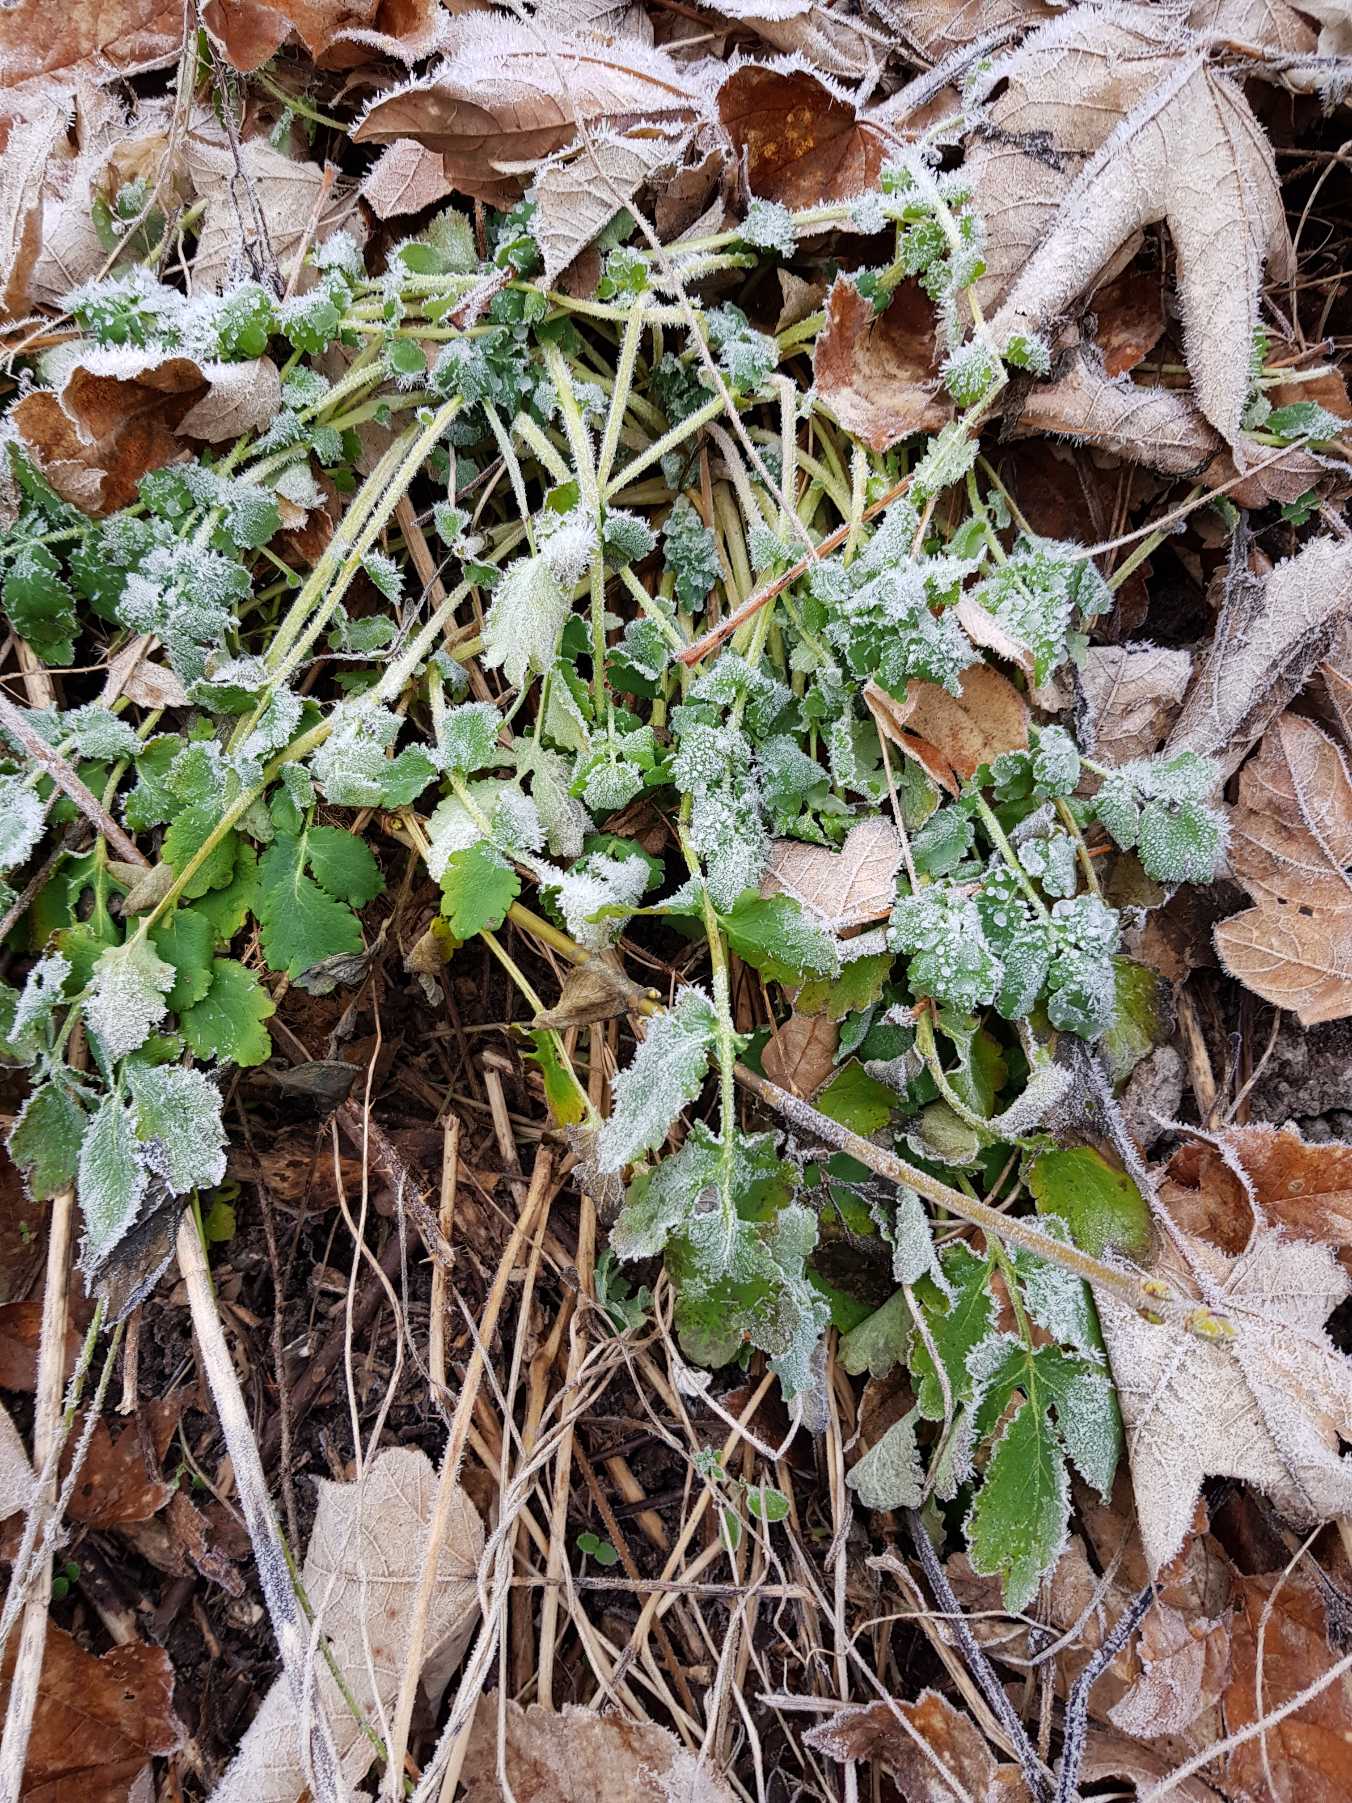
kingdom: Plantae
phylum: Tracheophyta
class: Magnoliopsida
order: Ranunculales
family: Papaveraceae
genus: Chelidonium
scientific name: Chelidonium majus
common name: Svaleurt
